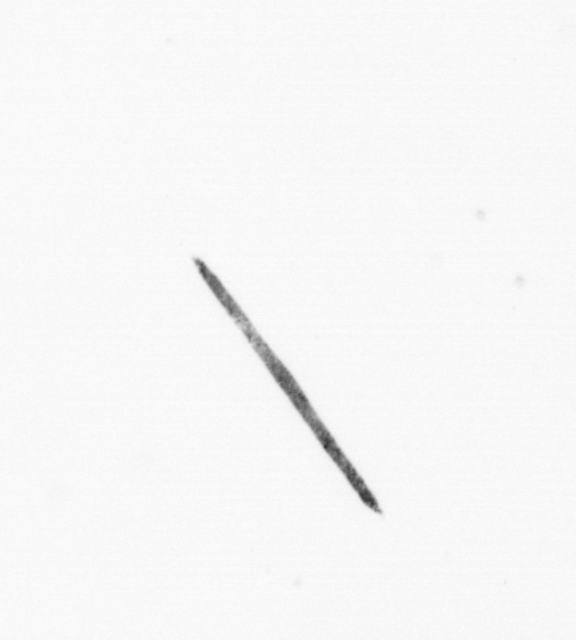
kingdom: Chromista
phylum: Ochrophyta
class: Bacillariophyceae
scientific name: Bacillariophyceae
